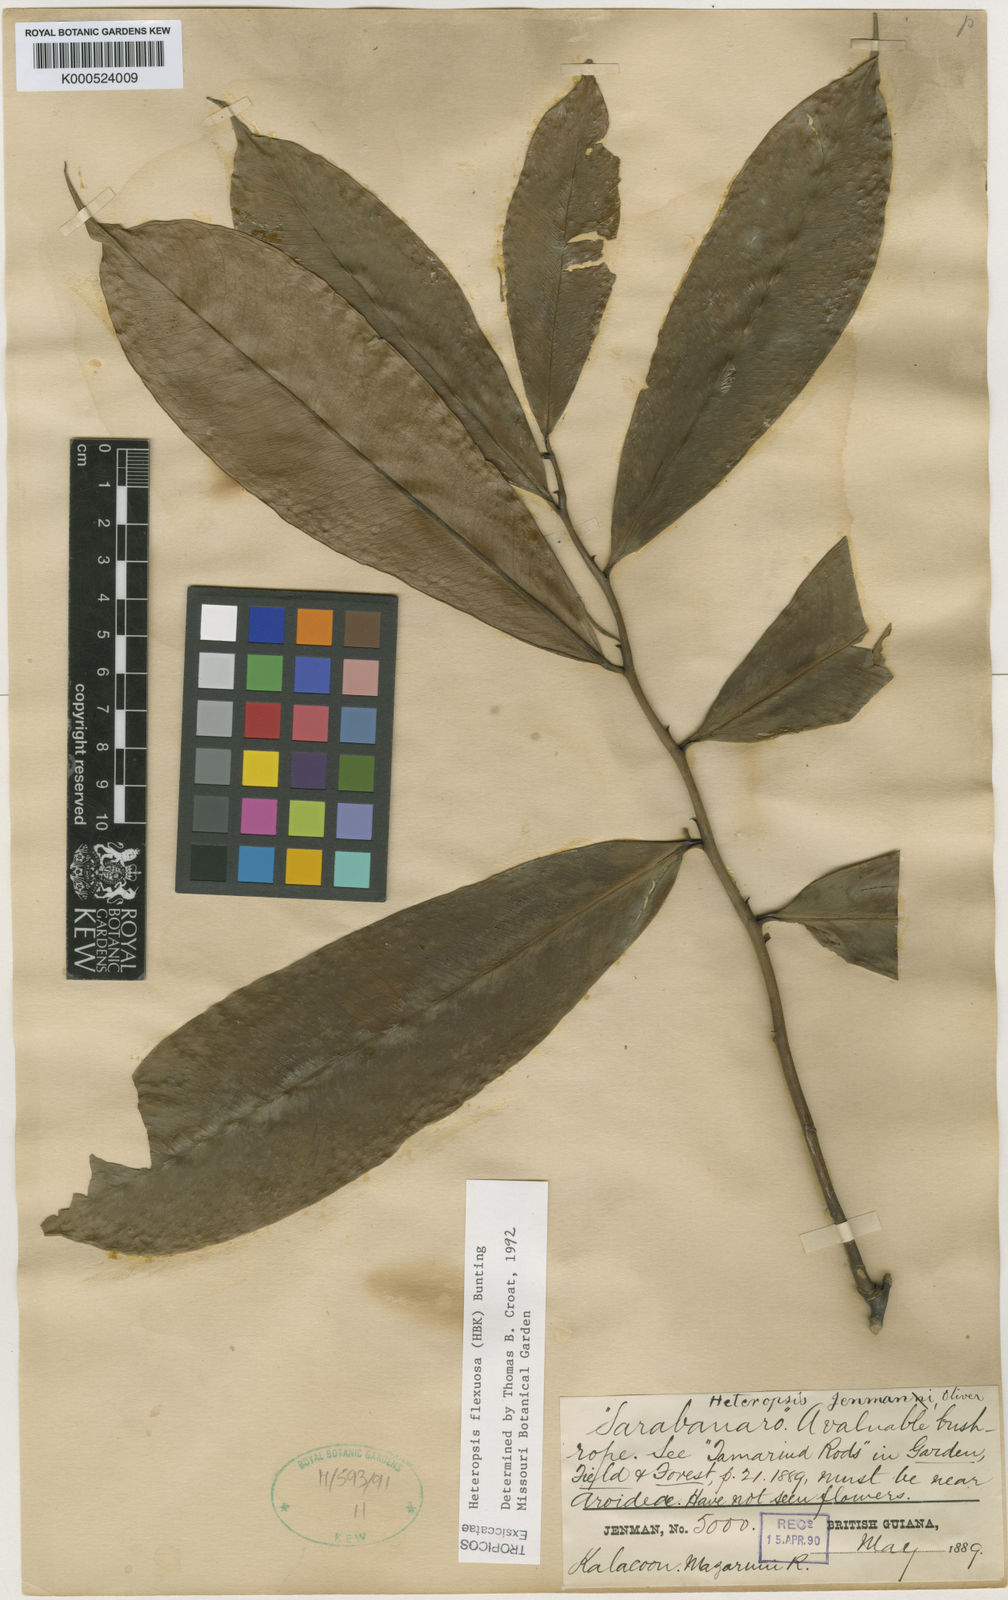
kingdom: Plantae
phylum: Tracheophyta
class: Liliopsida
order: Alismatales
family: Araceae
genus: Heteropsis
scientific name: Heteropsis flexuosa
